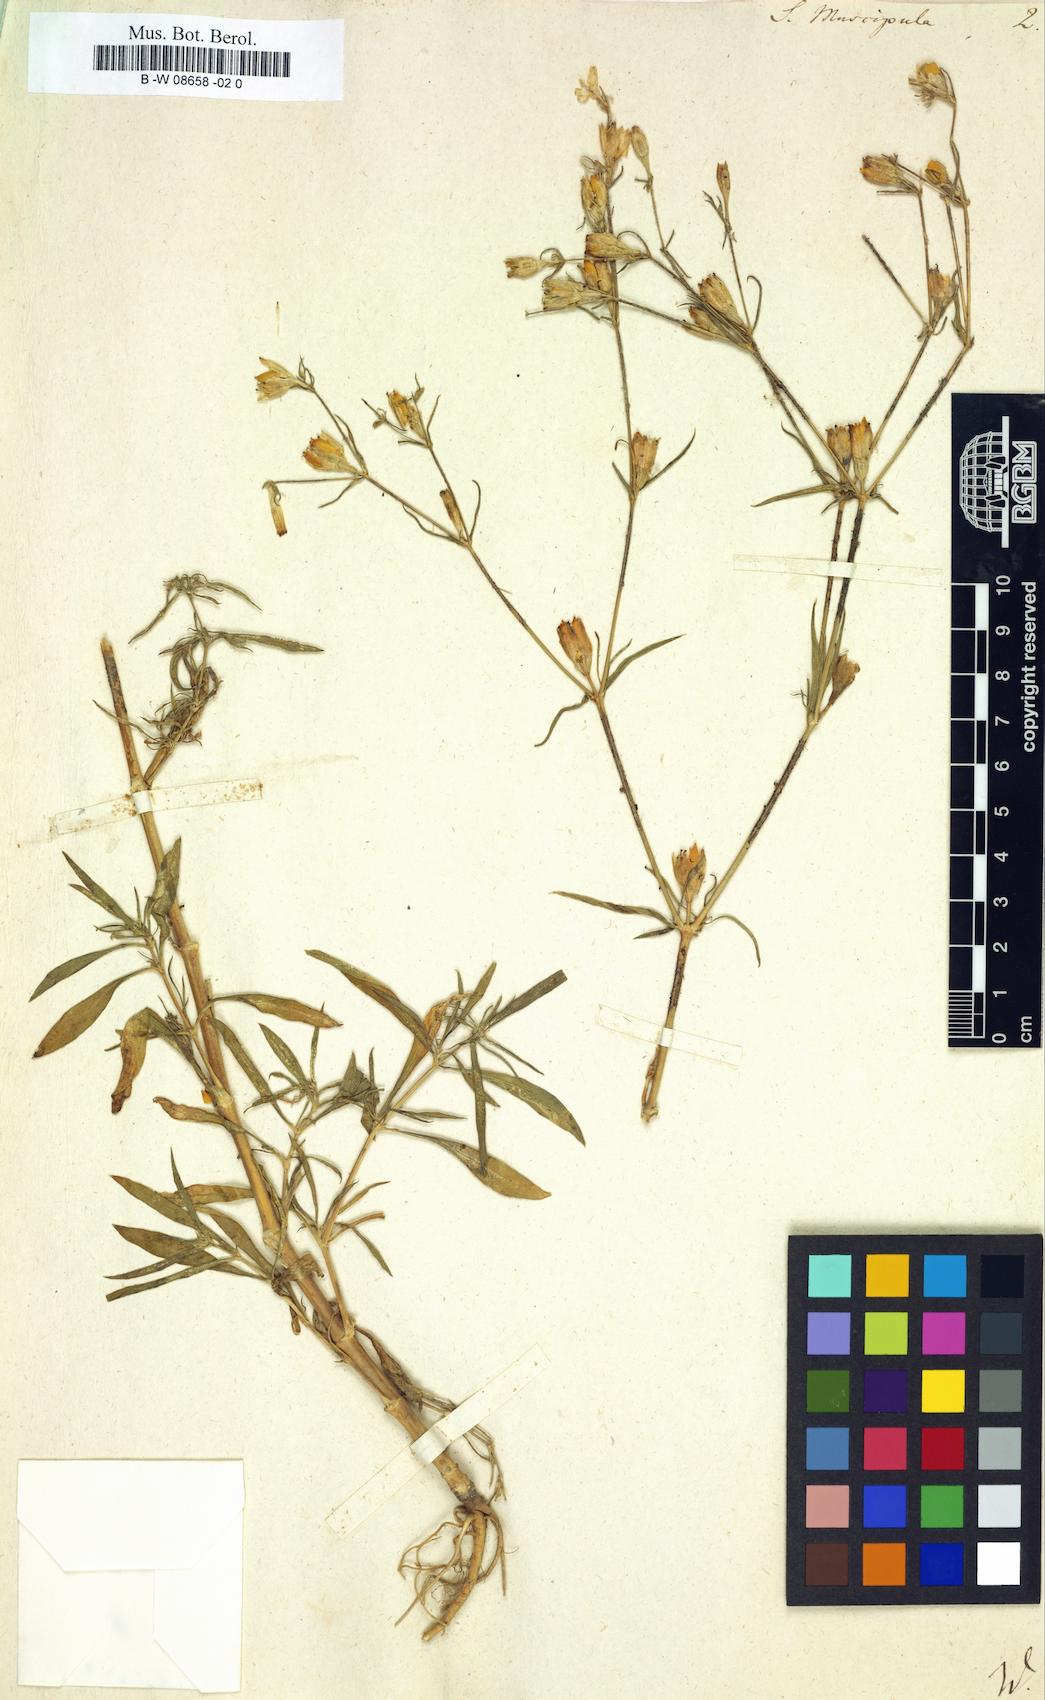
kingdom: Plantae
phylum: Tracheophyta
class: Magnoliopsida
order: Caryophyllales
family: Caryophyllaceae
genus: Silene
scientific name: Silene muscipula
